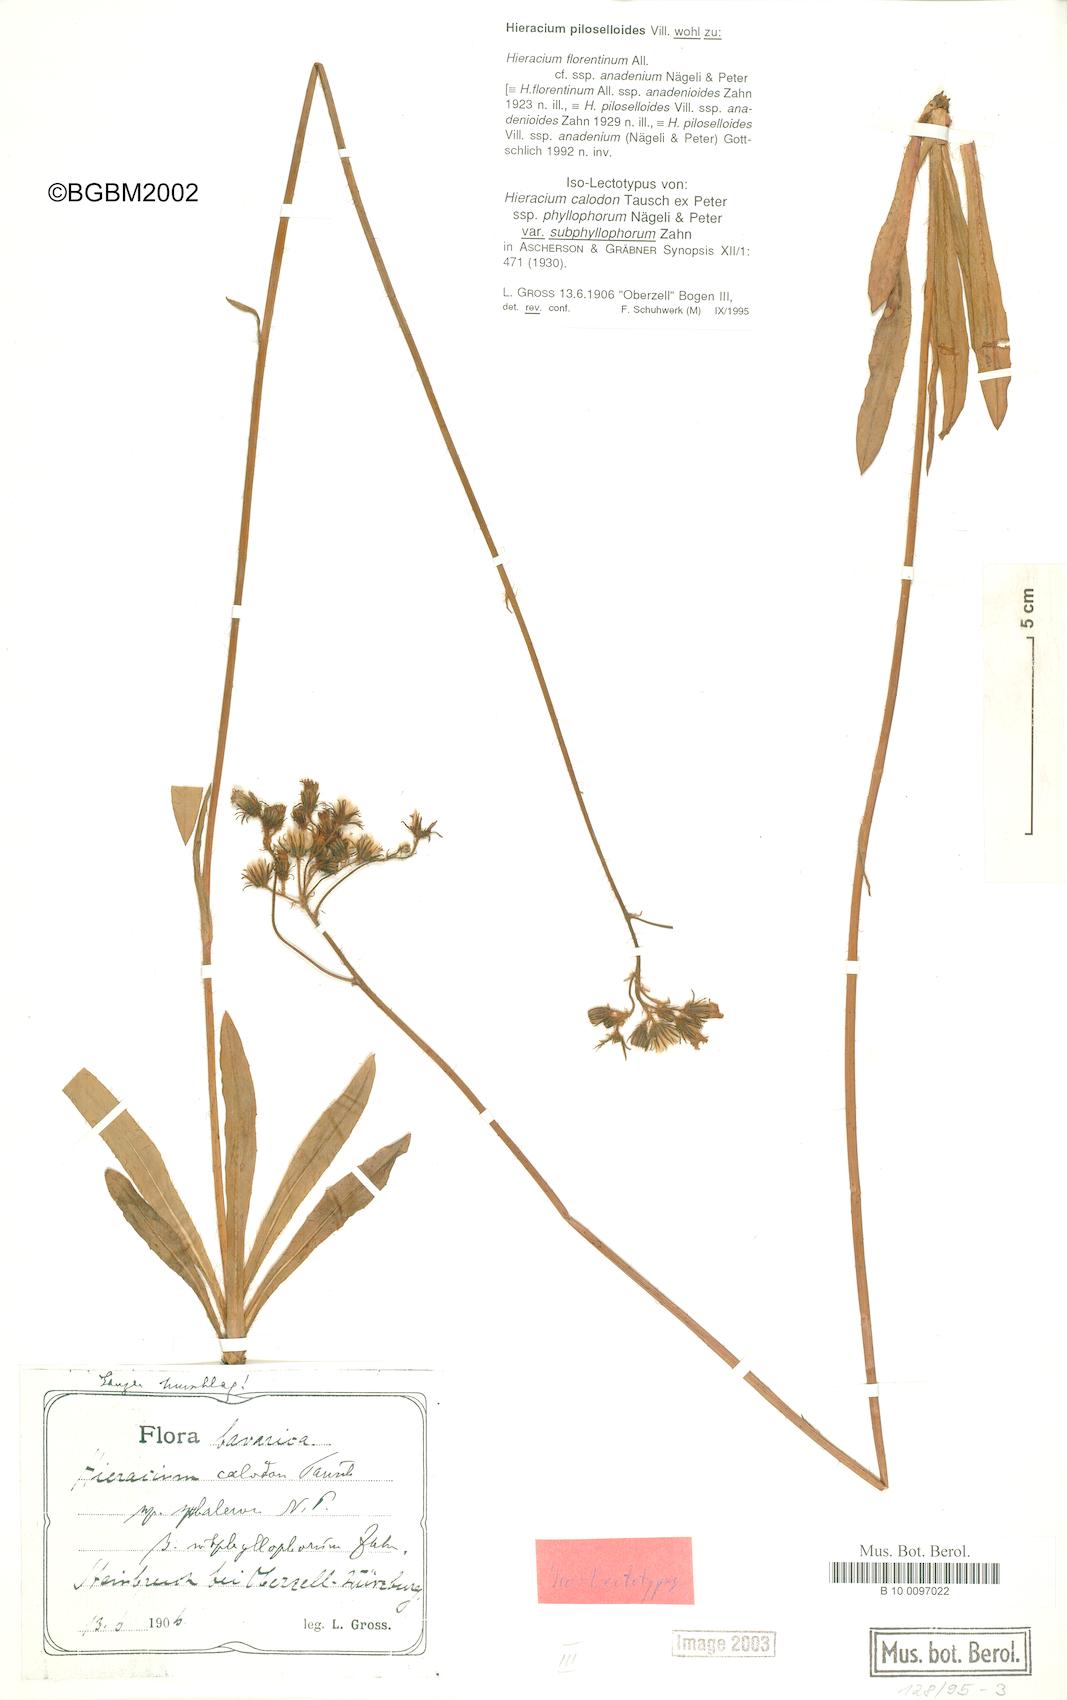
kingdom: Plantae
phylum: Tracheophyta
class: Magnoliopsida
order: Asterales
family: Asteraceae
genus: Pilosella
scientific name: Pilosella
